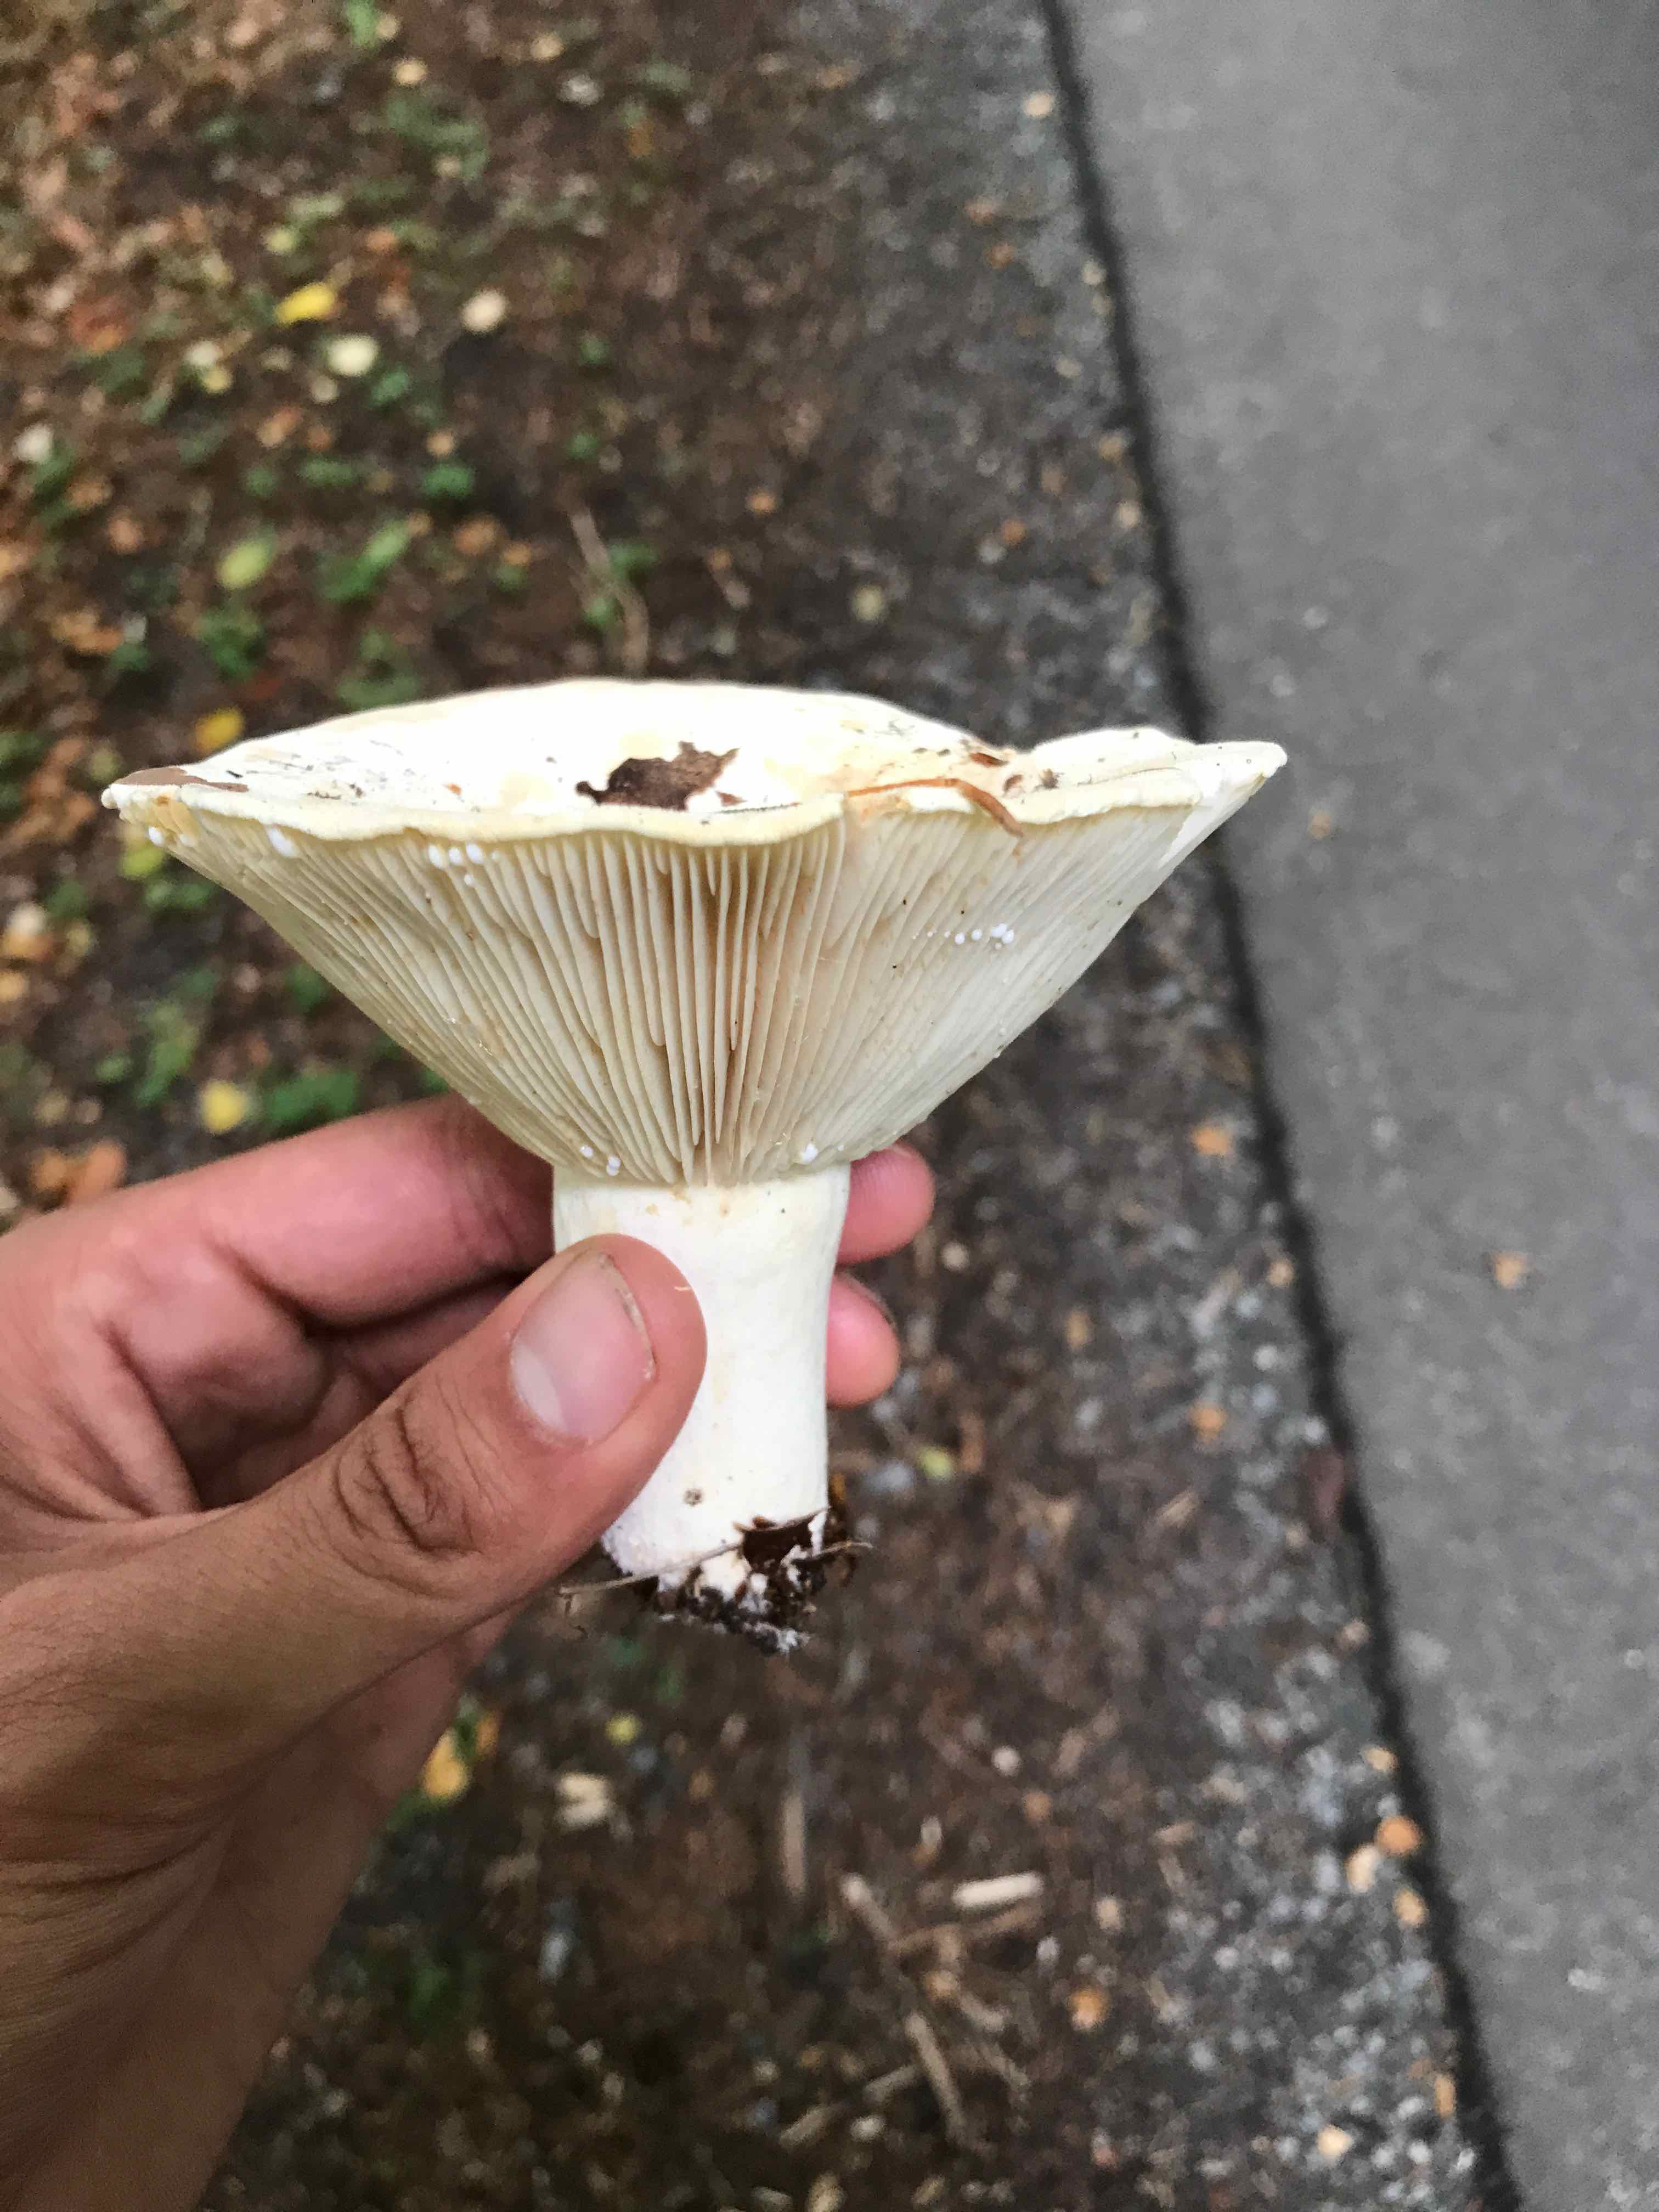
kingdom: Fungi
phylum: Basidiomycota
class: Agaricomycetes
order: Russulales
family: Russulaceae
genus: Lactifluus
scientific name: Lactifluus
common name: mælkehat
